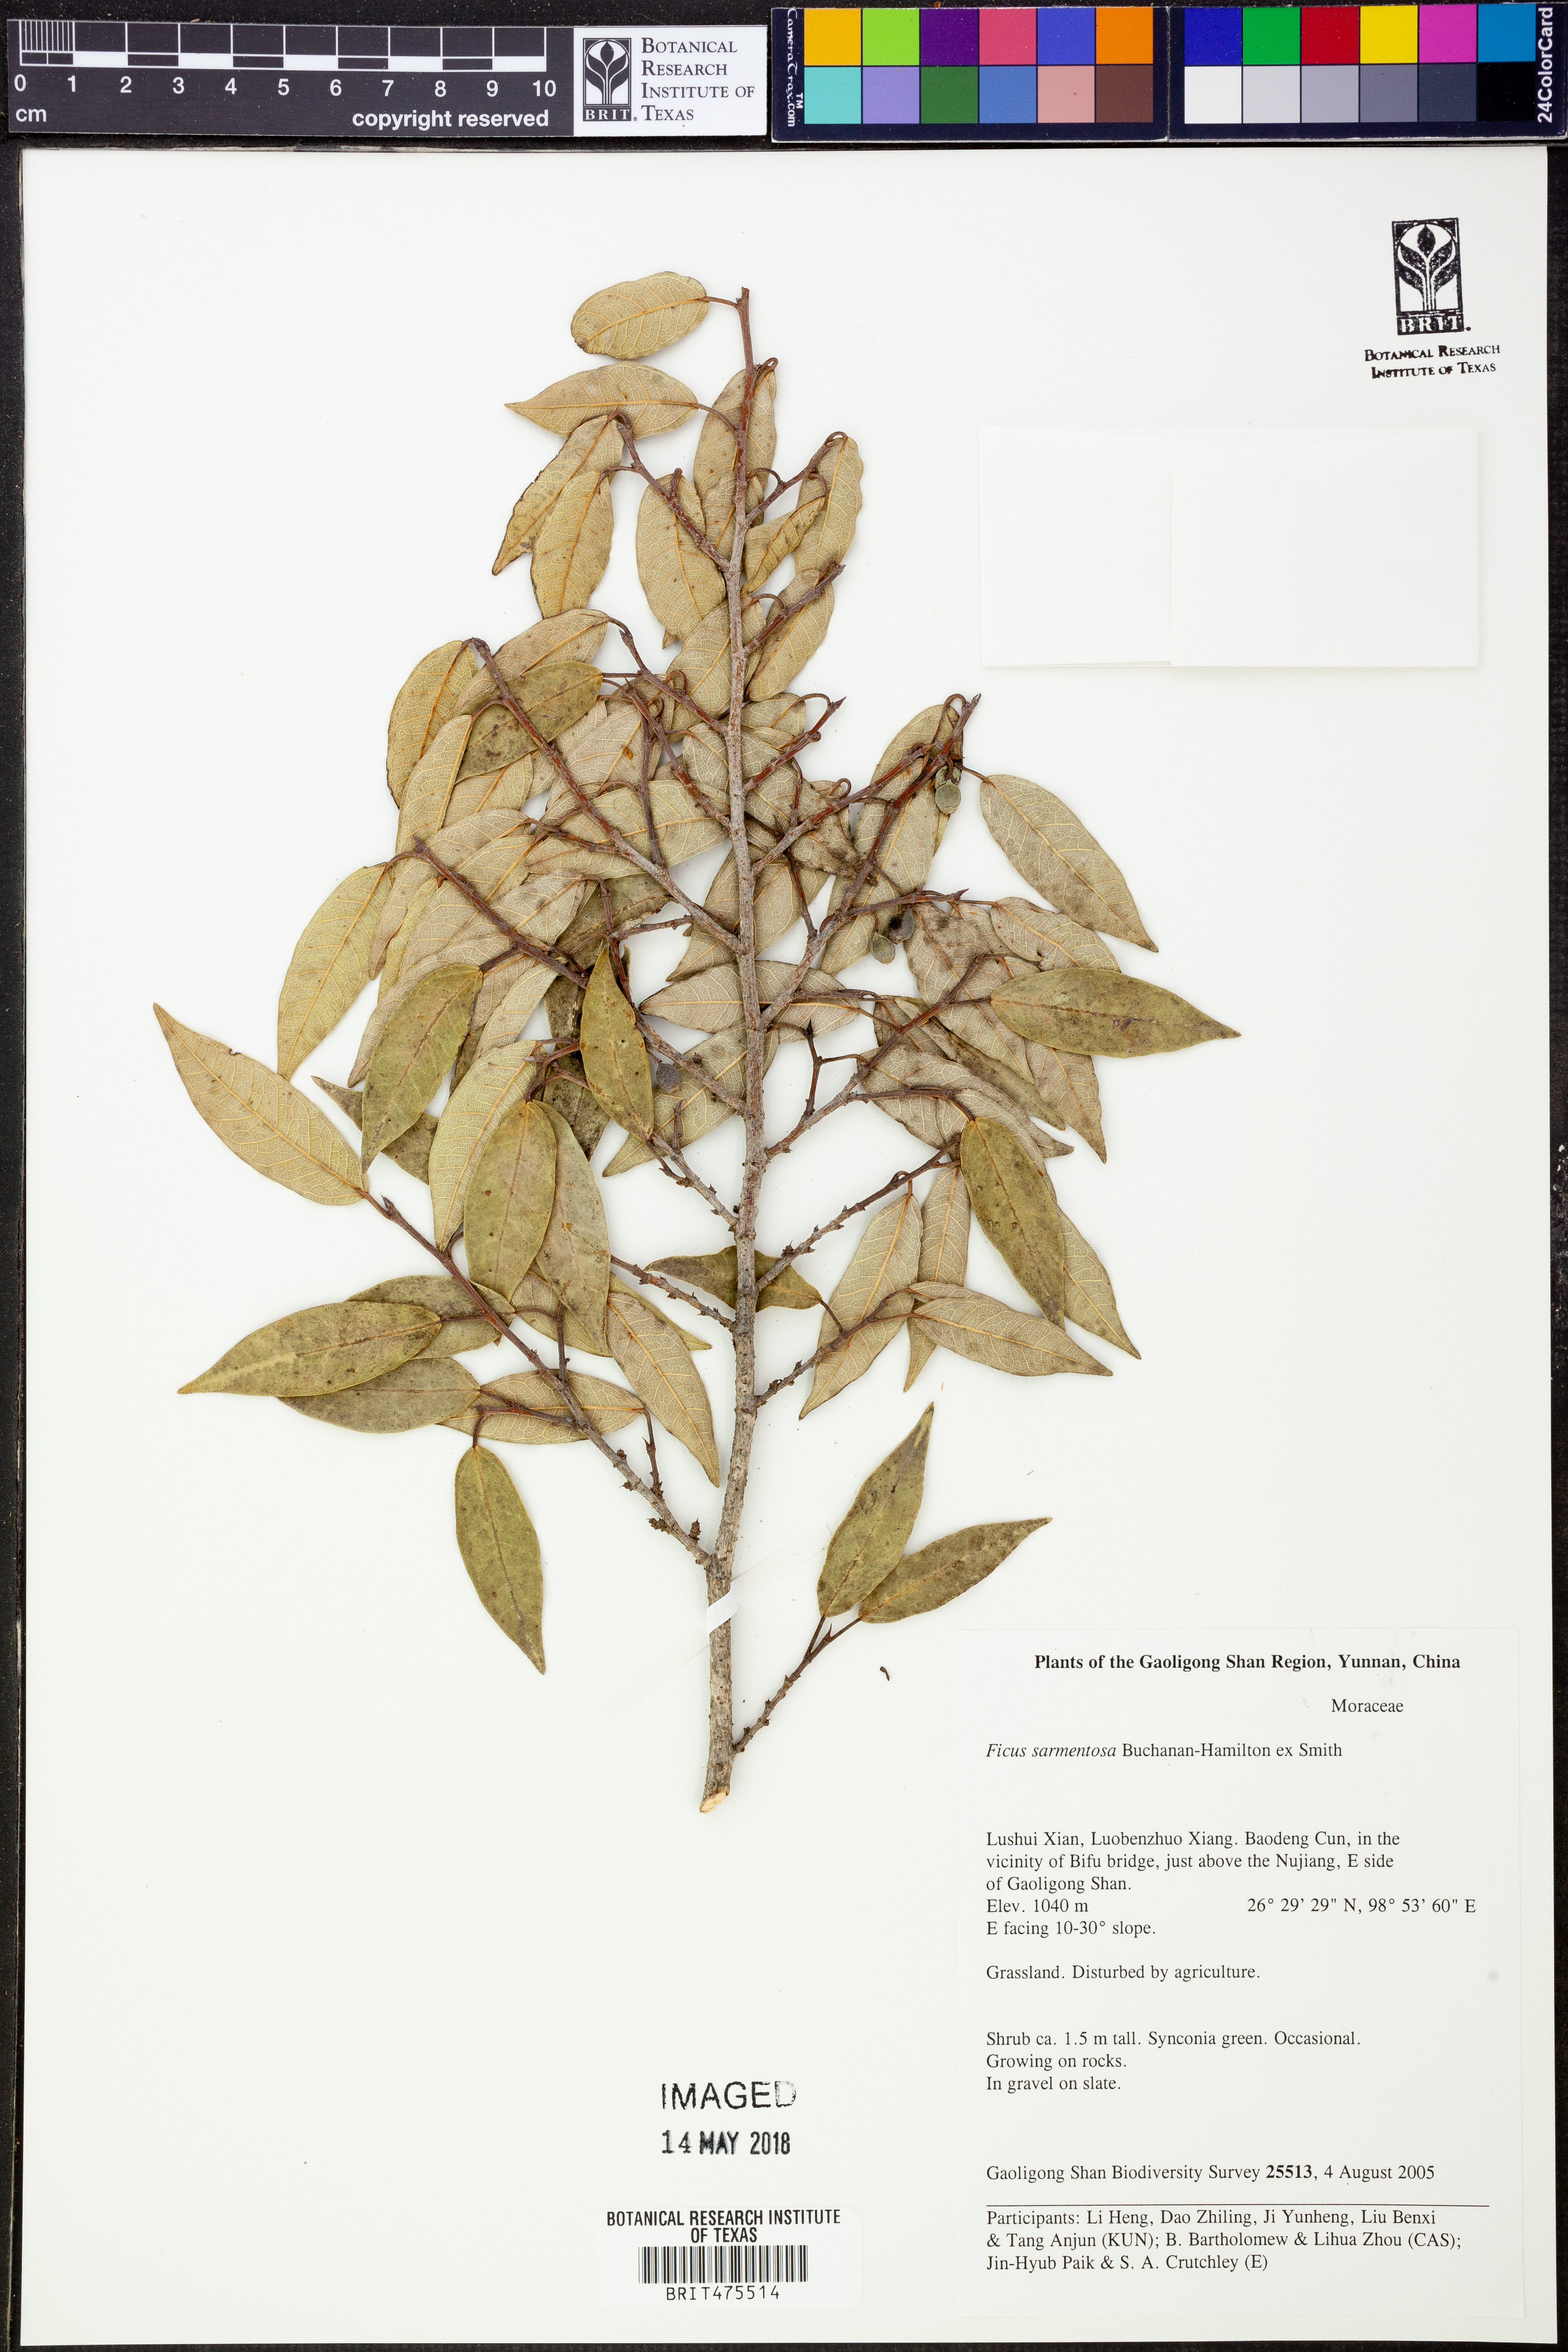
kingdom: Plantae
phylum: Tracheophyta
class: Magnoliopsida
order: Rosales
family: Moraceae
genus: Ficus
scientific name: Ficus hederacea
